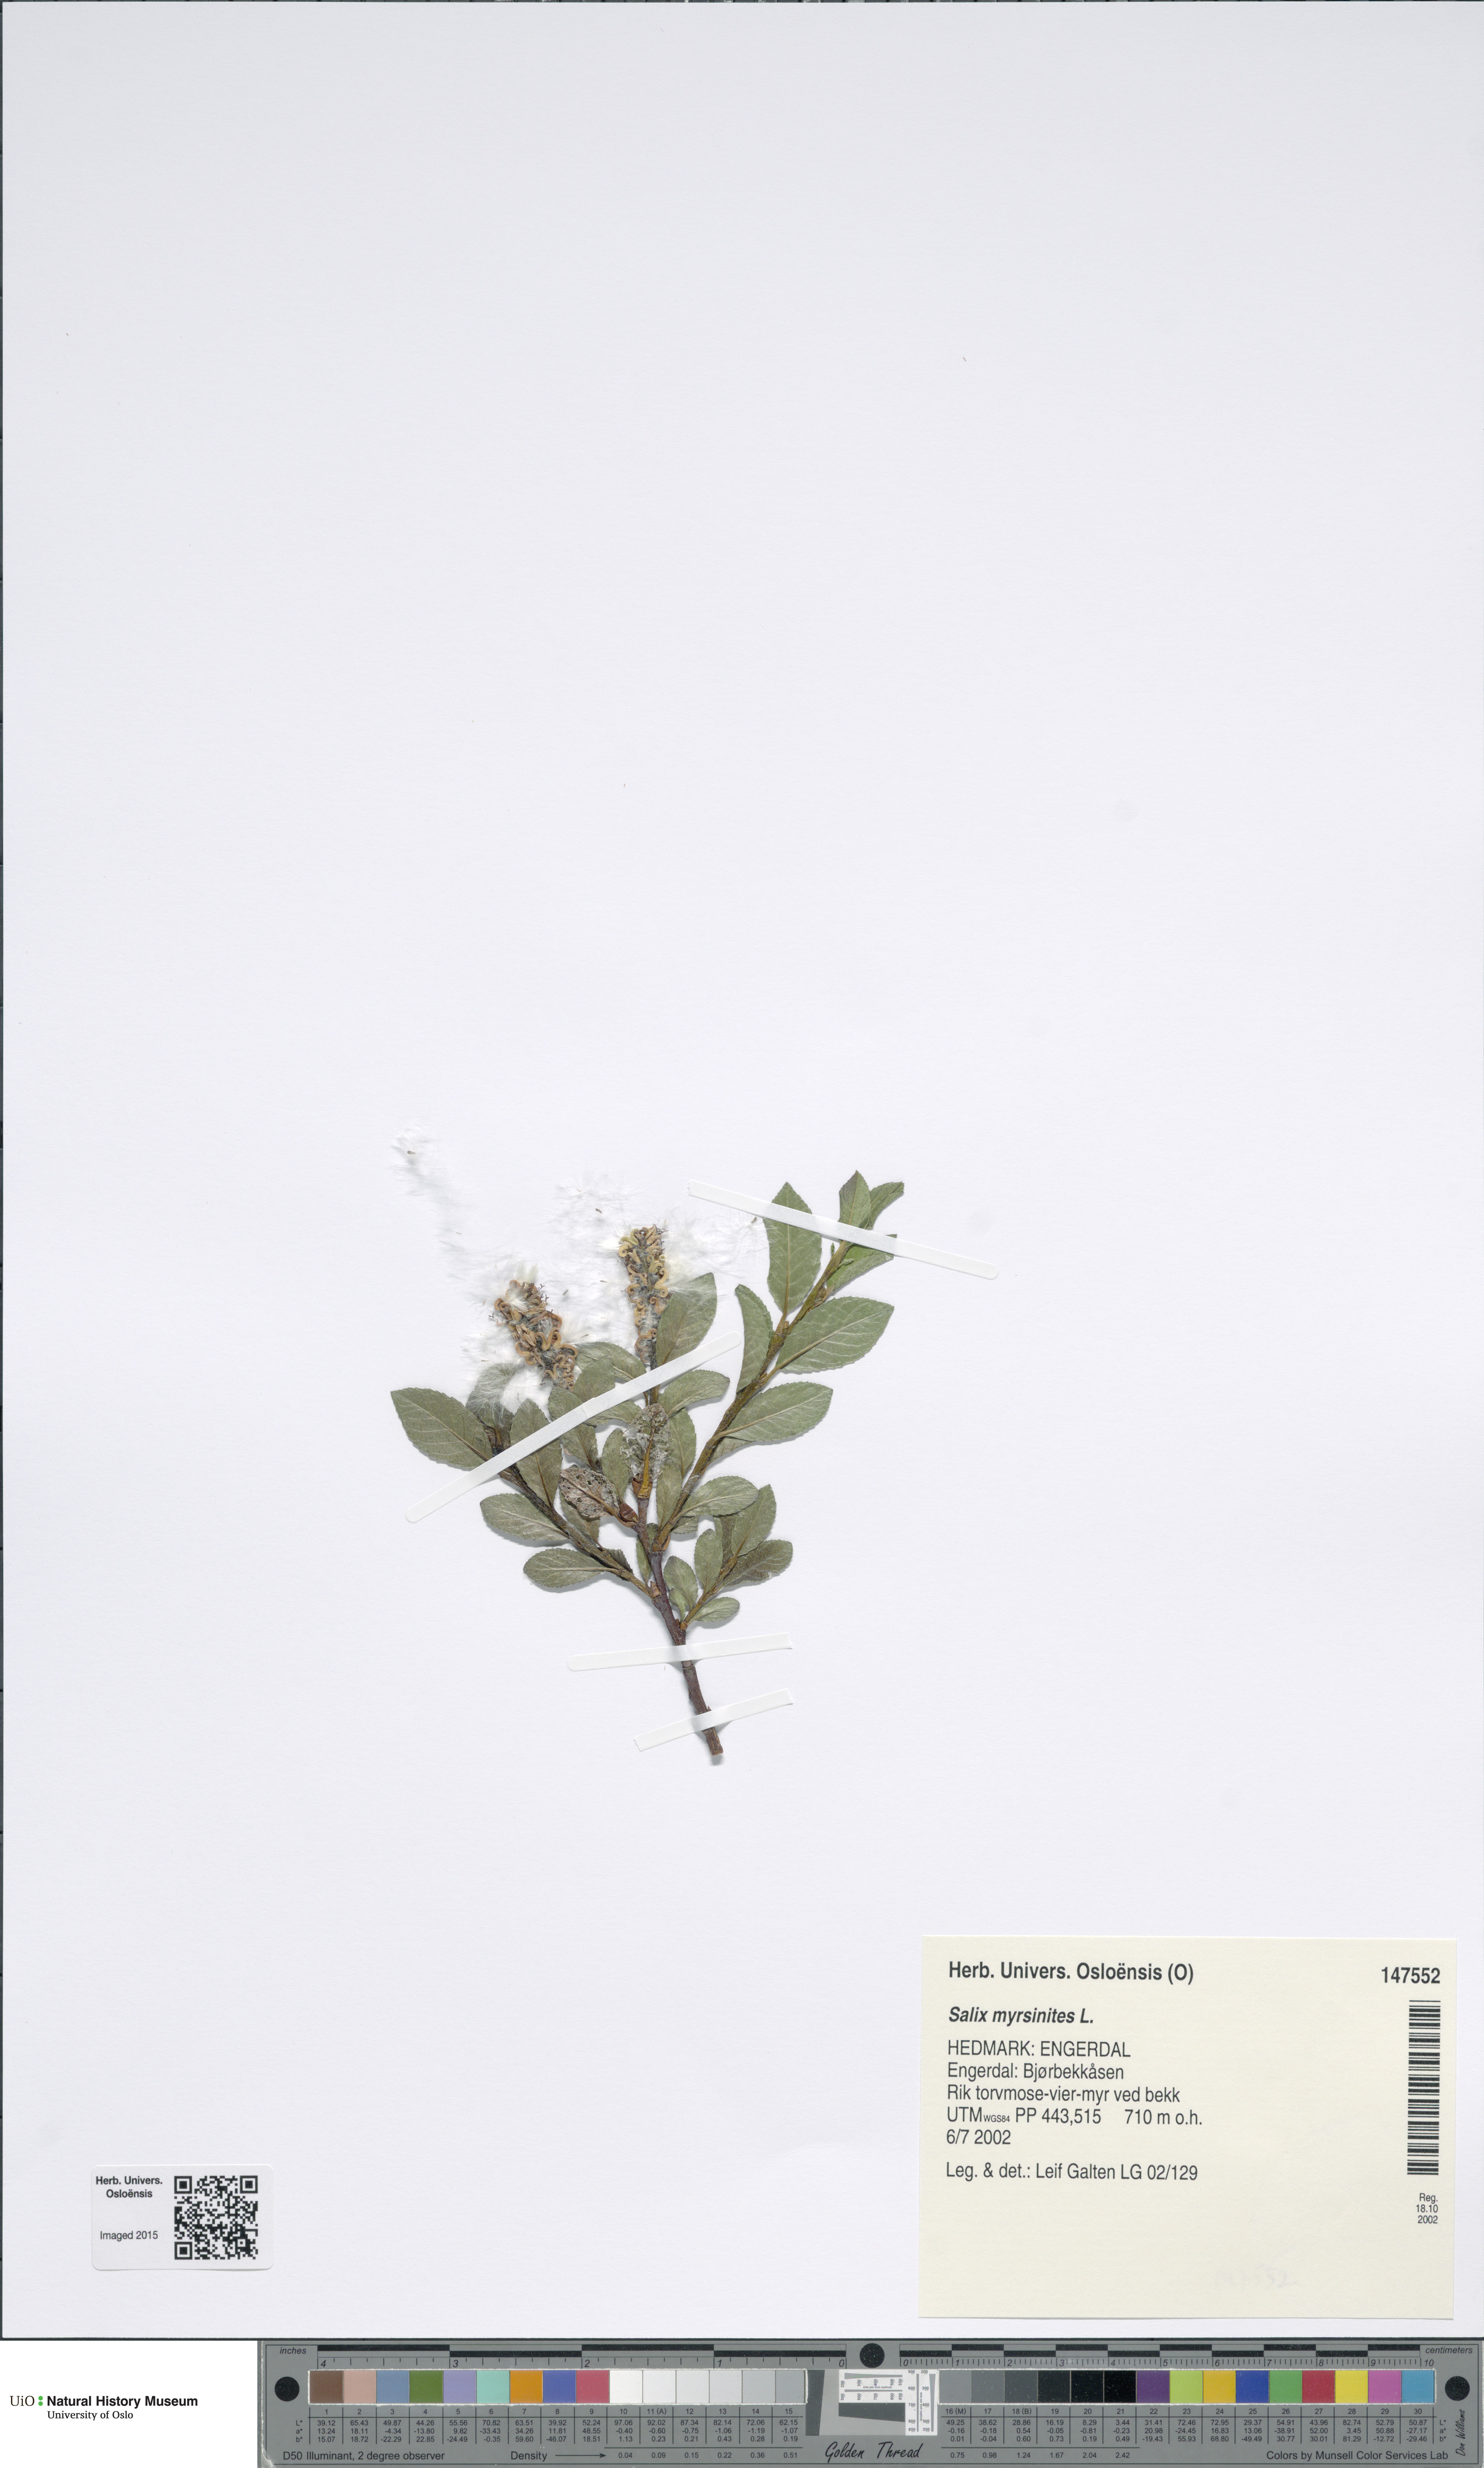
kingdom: Plantae
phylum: Tracheophyta
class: Magnoliopsida
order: Malpighiales
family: Salicaceae
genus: Salix
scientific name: Salix myrsinites
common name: Myrtle willow
